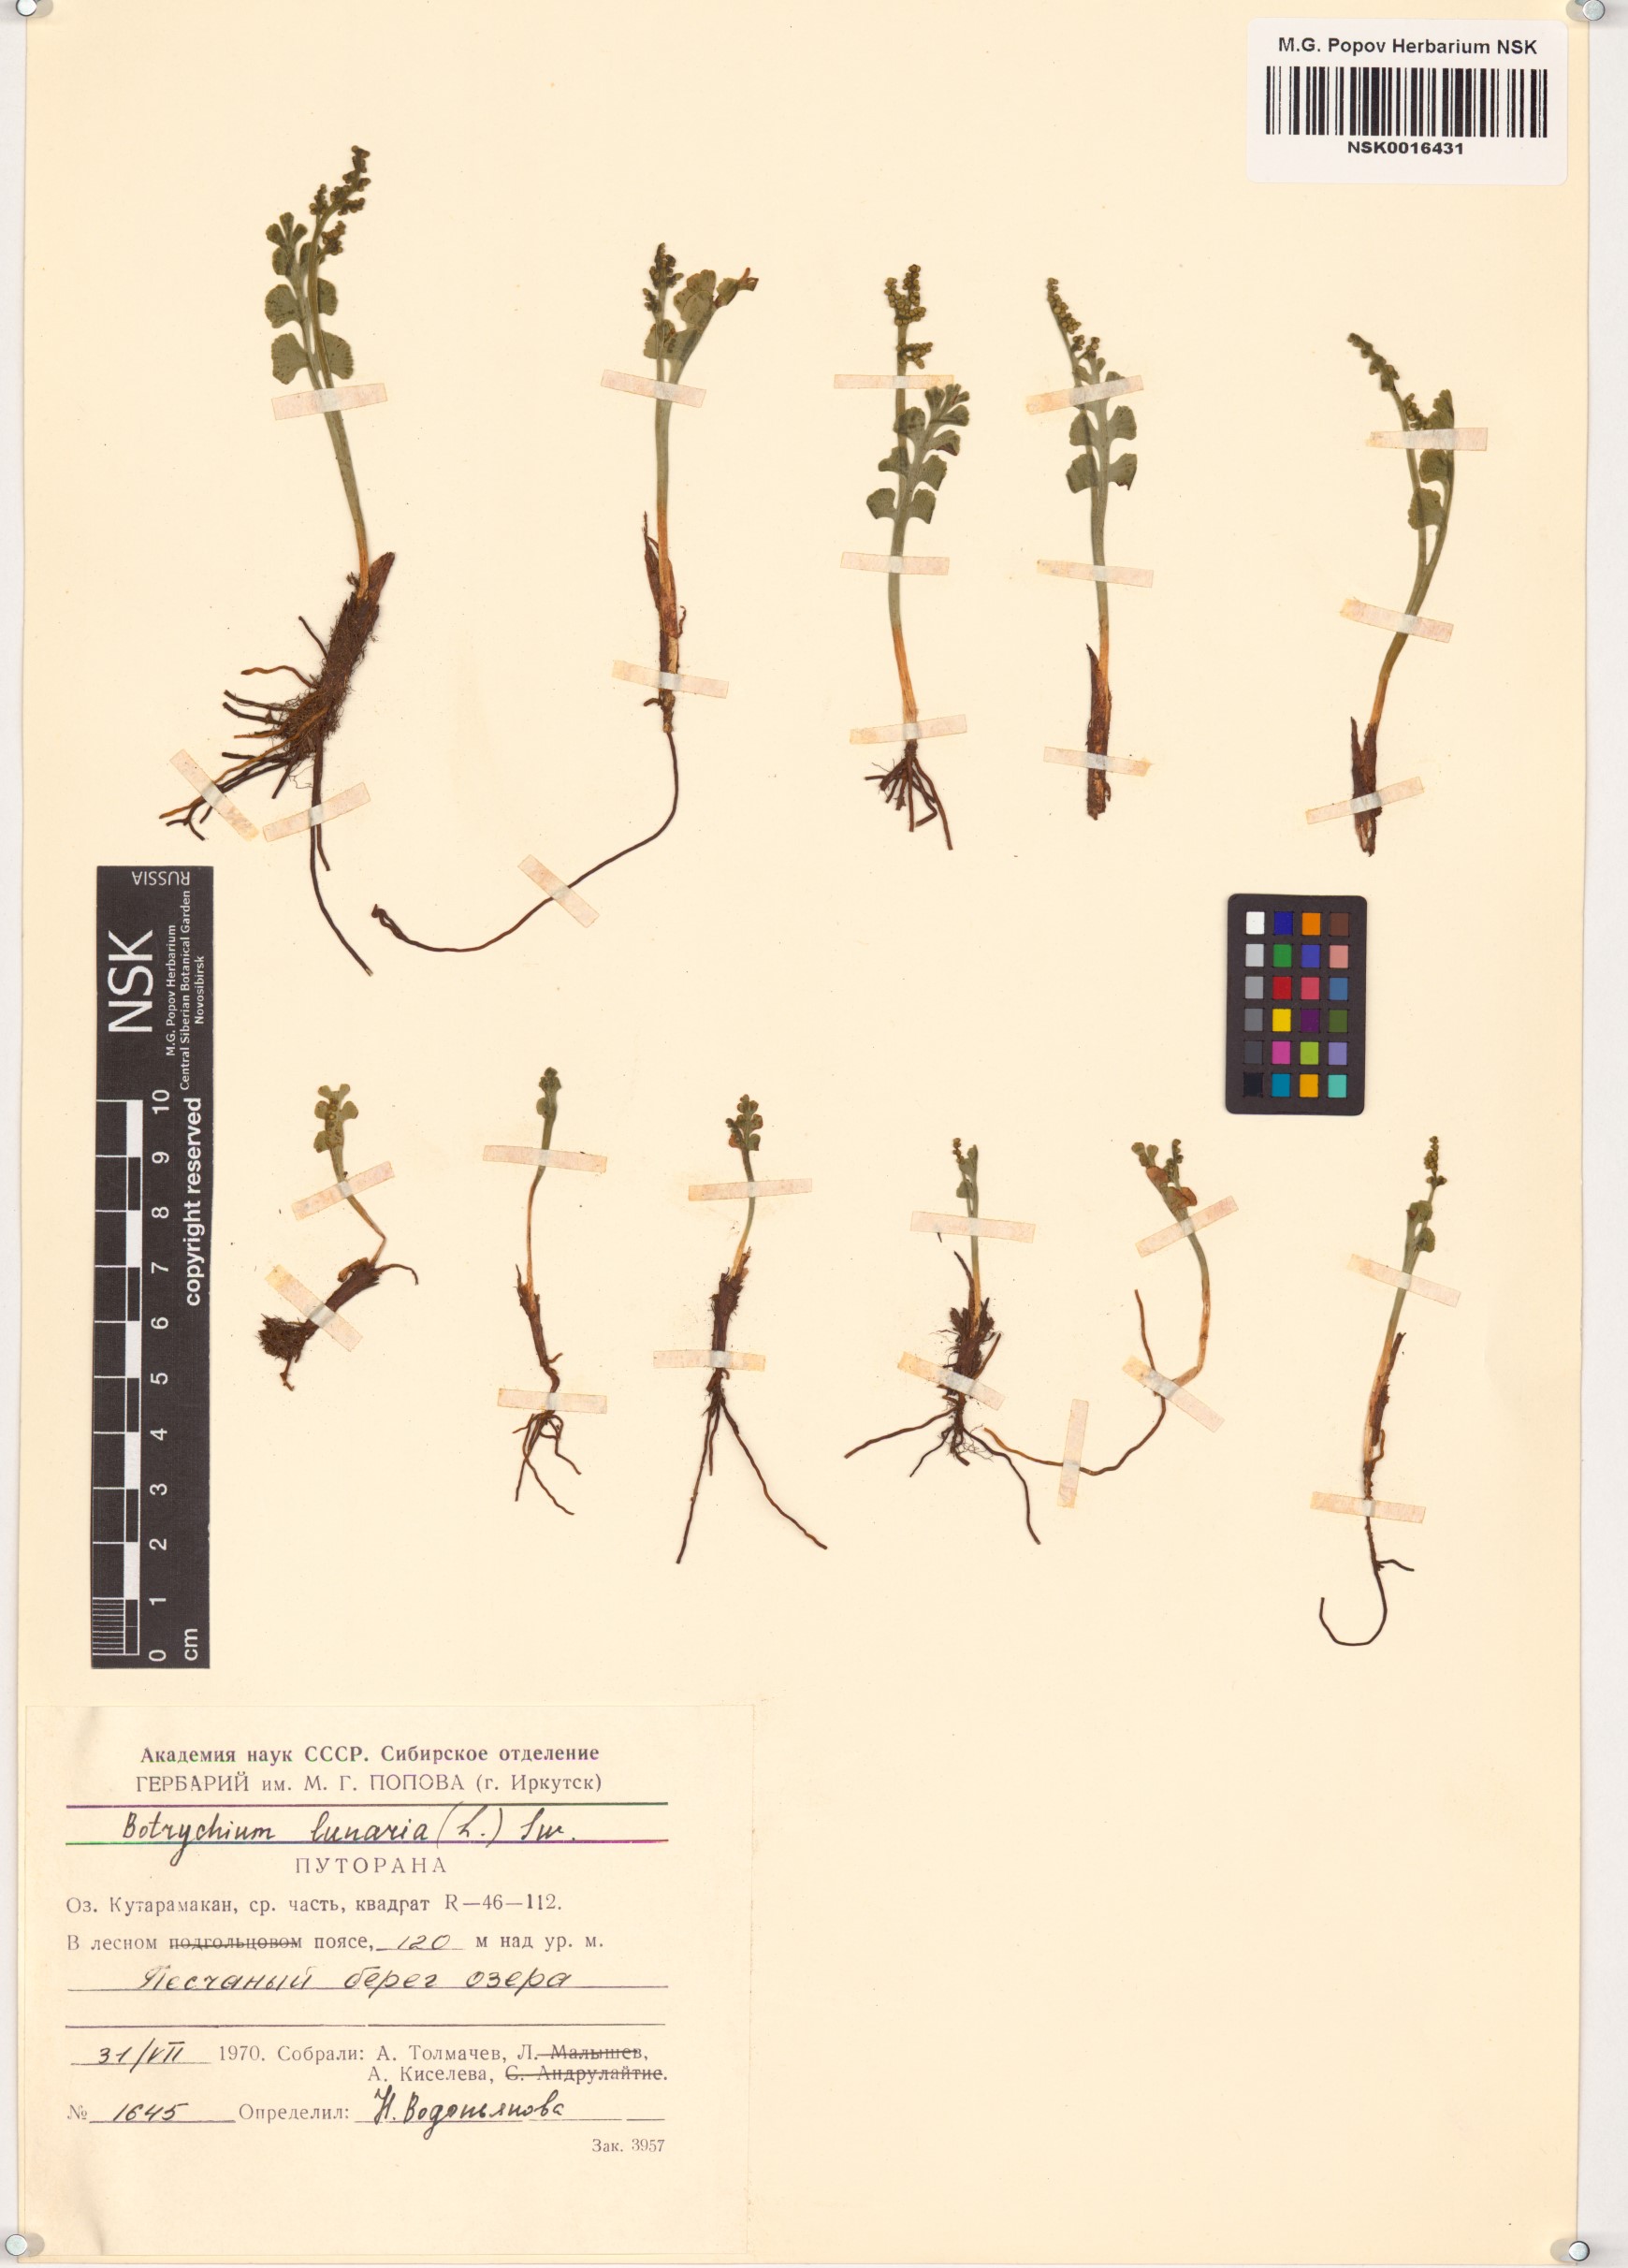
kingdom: Plantae
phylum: Tracheophyta
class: Polypodiopsida
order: Ophioglossales
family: Ophioglossaceae
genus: Botrychium
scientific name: Botrychium lunaria
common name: Moonwort
